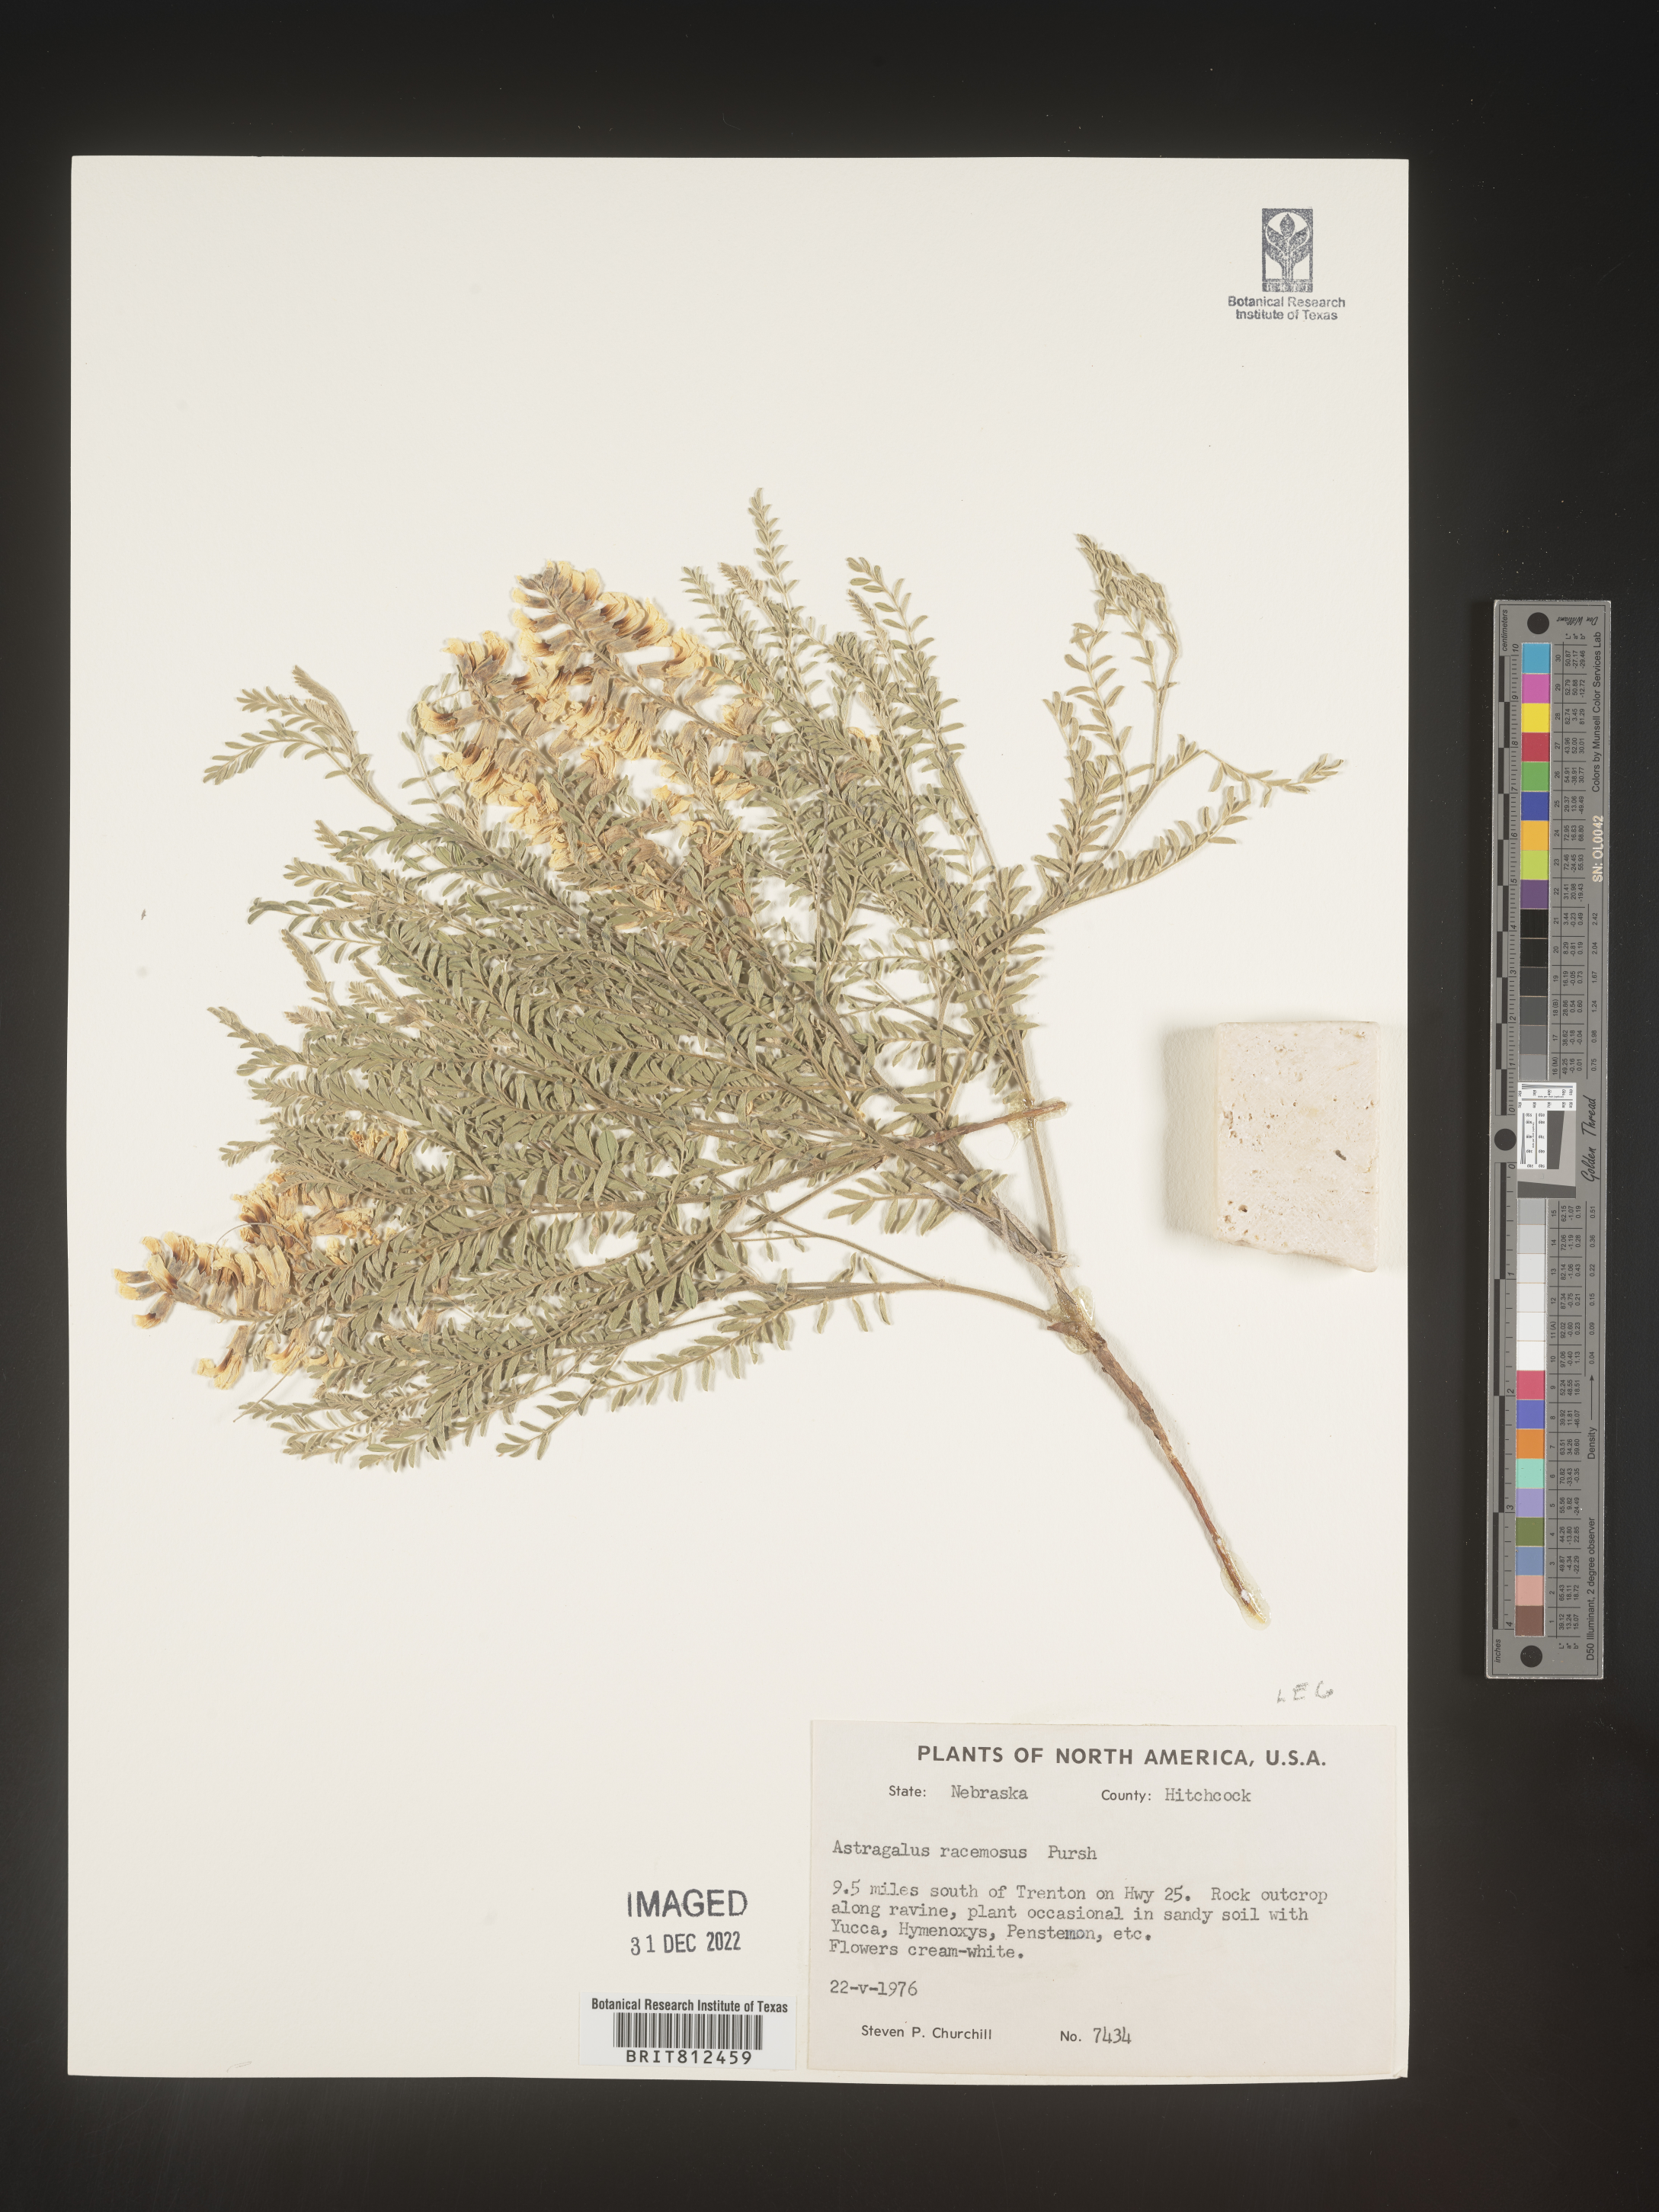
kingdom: Plantae
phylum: Tracheophyta
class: Magnoliopsida
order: Fabales
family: Fabaceae
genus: Astragalus
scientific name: Astragalus racemosus
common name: Alkali milk-vetch
